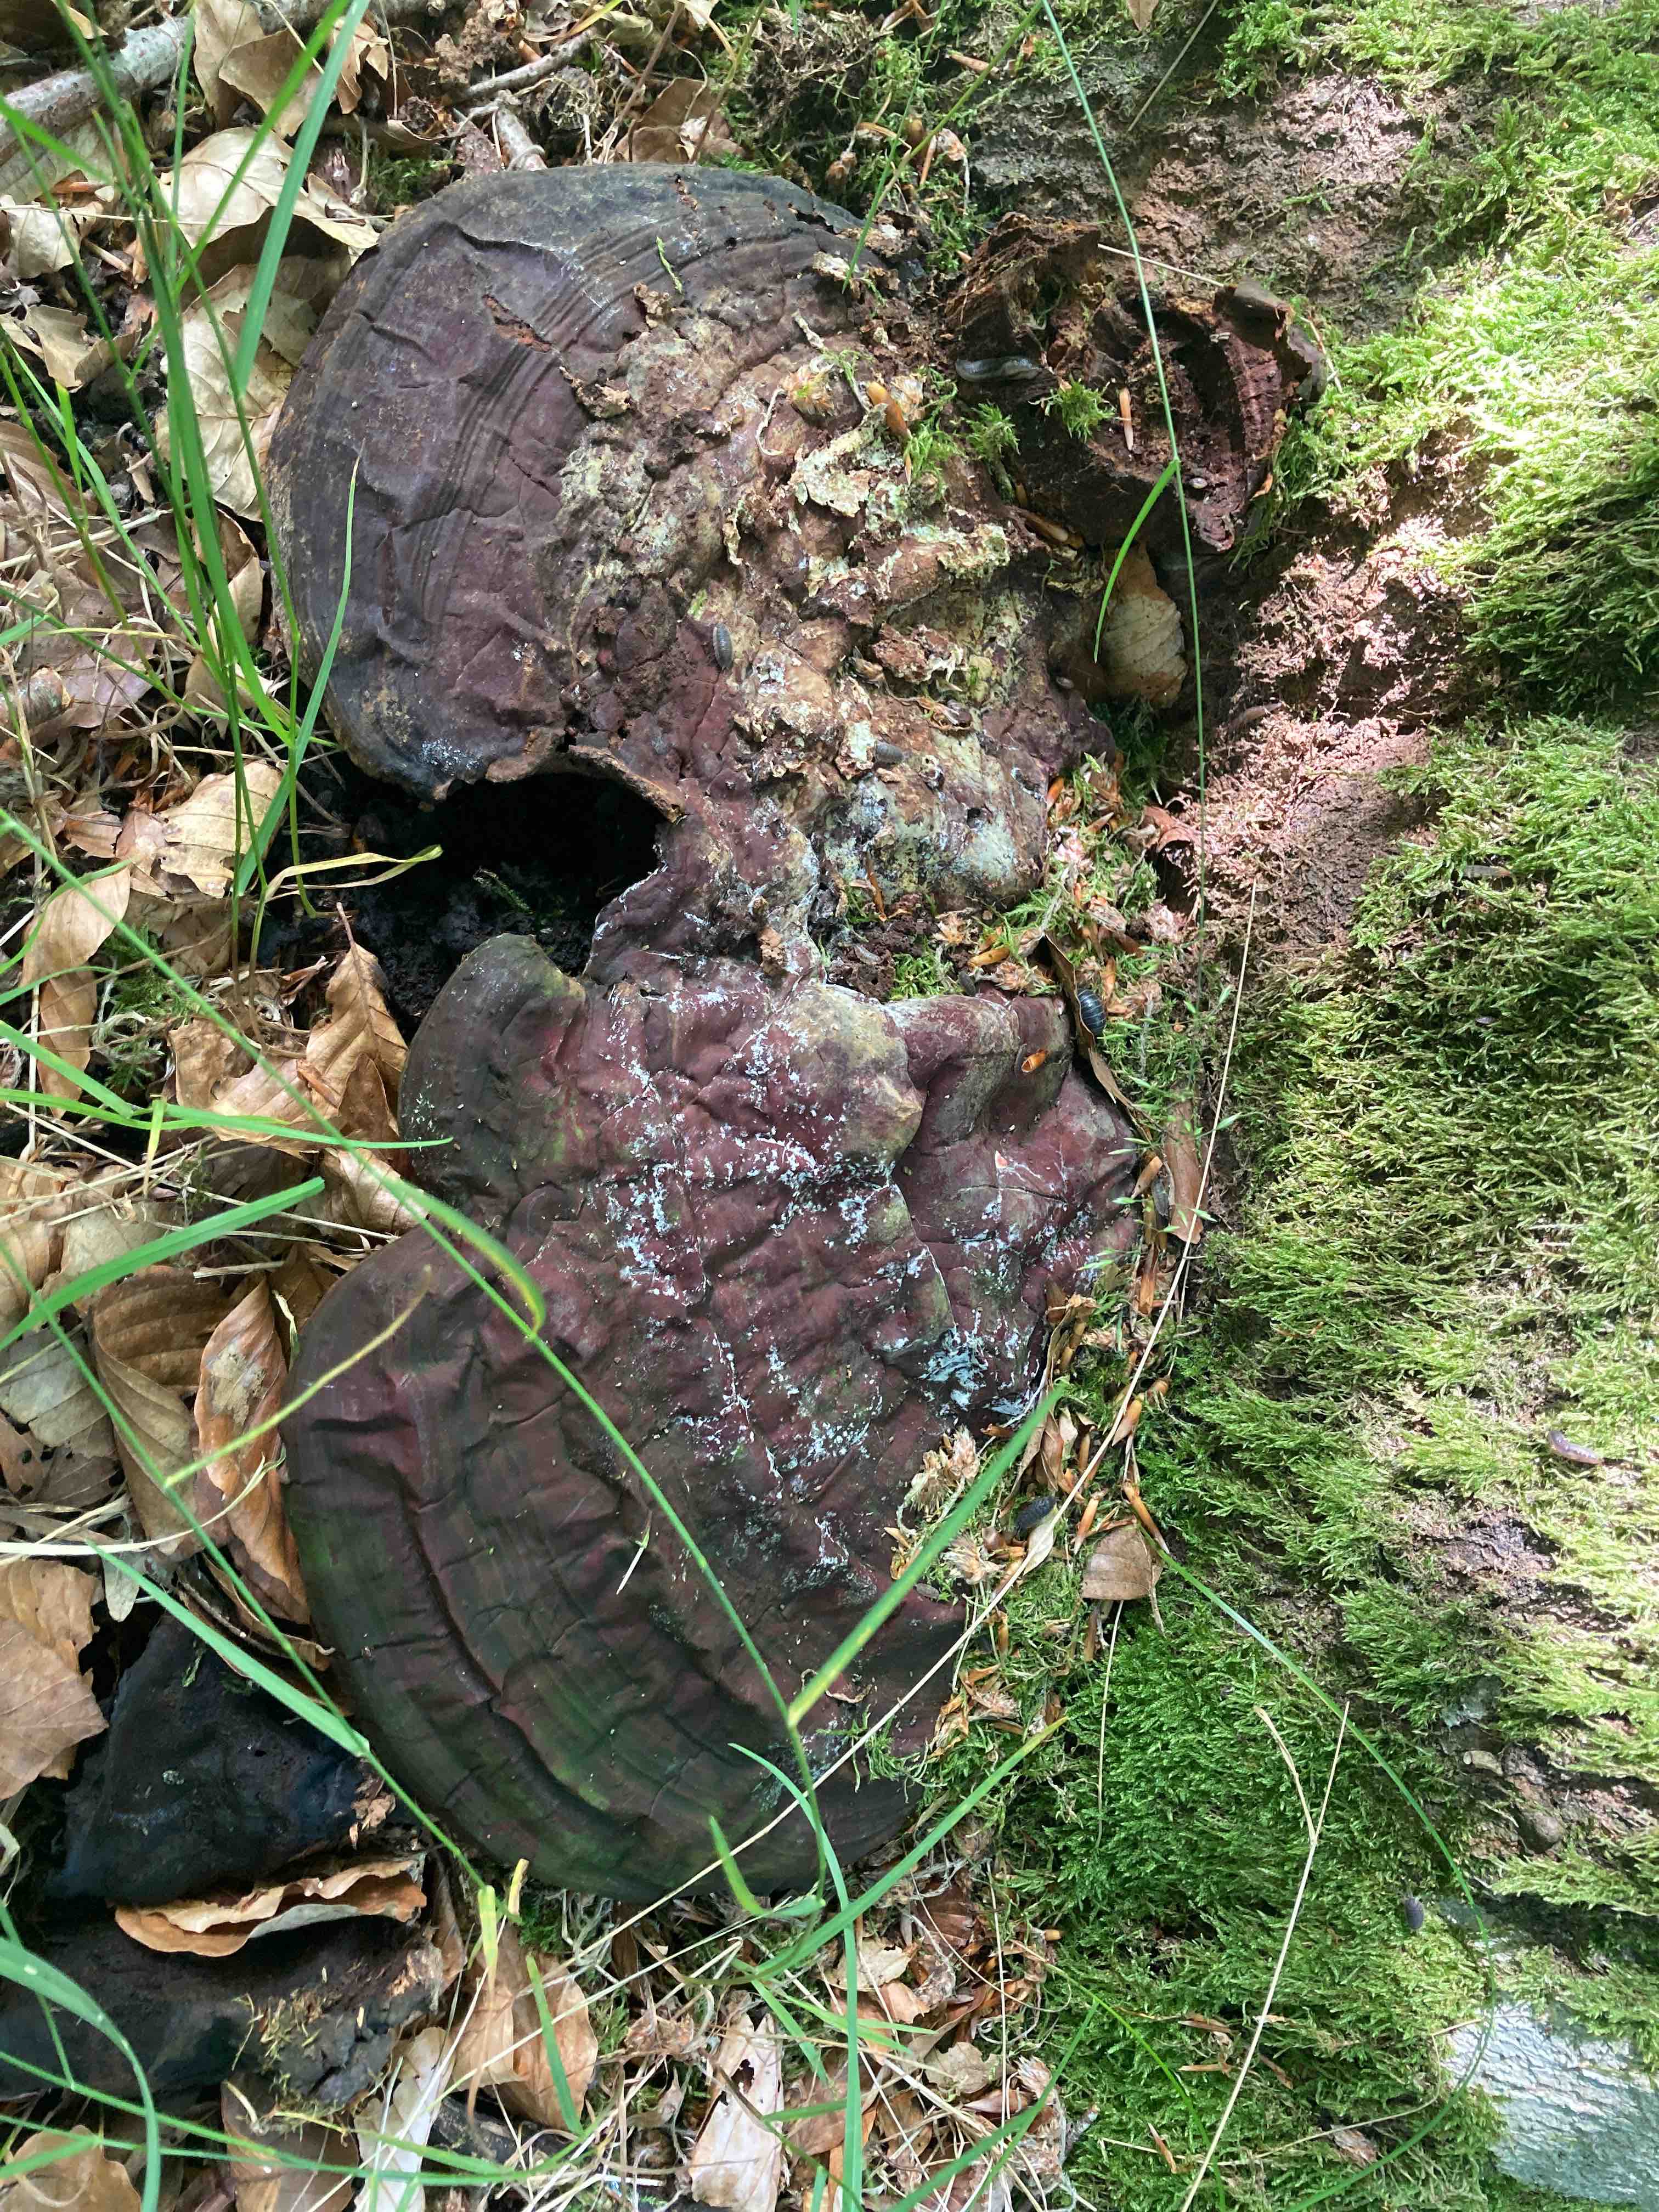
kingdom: Fungi
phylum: Basidiomycota
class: Agaricomycetes
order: Polyporales
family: Polyporaceae
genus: Ganoderma
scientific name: Ganoderma resinaceum
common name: gyldenbrun lakporesvamp
